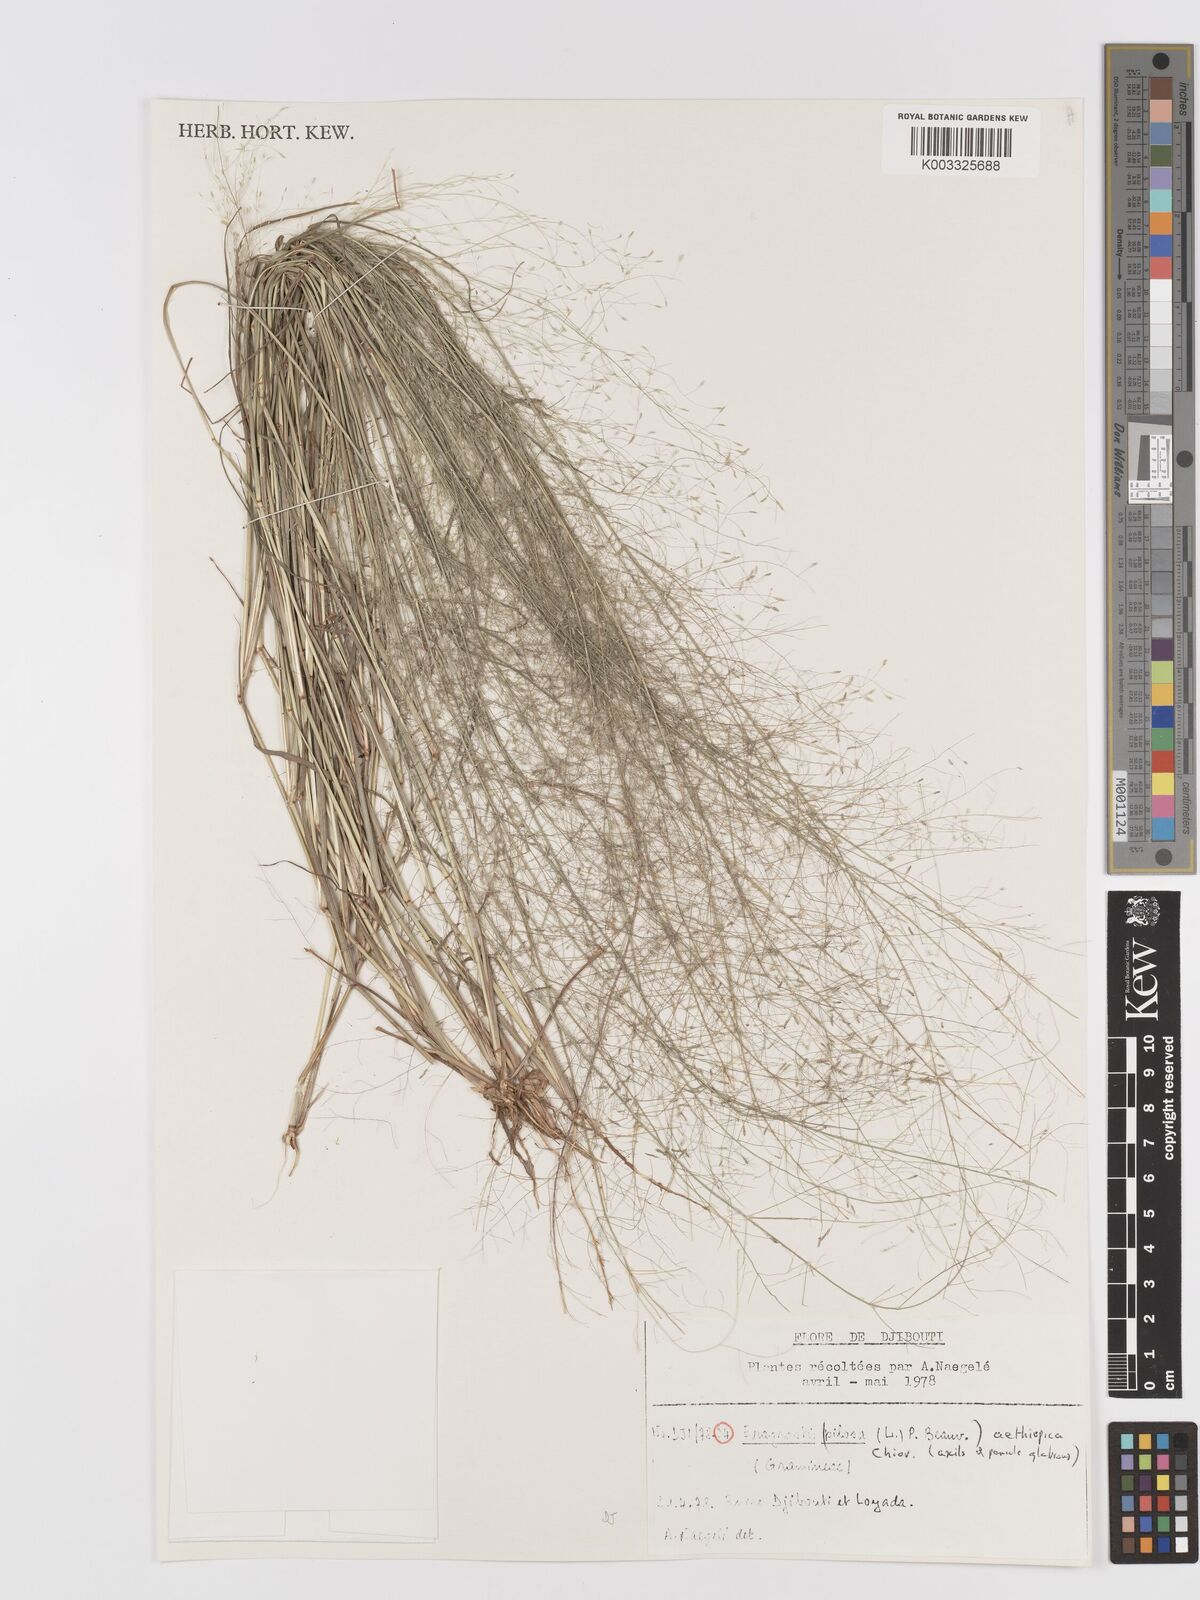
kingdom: Plantae
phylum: Tracheophyta
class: Liliopsida
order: Poales
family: Poaceae
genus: Eragrostis
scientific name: Eragrostis aethiopica
